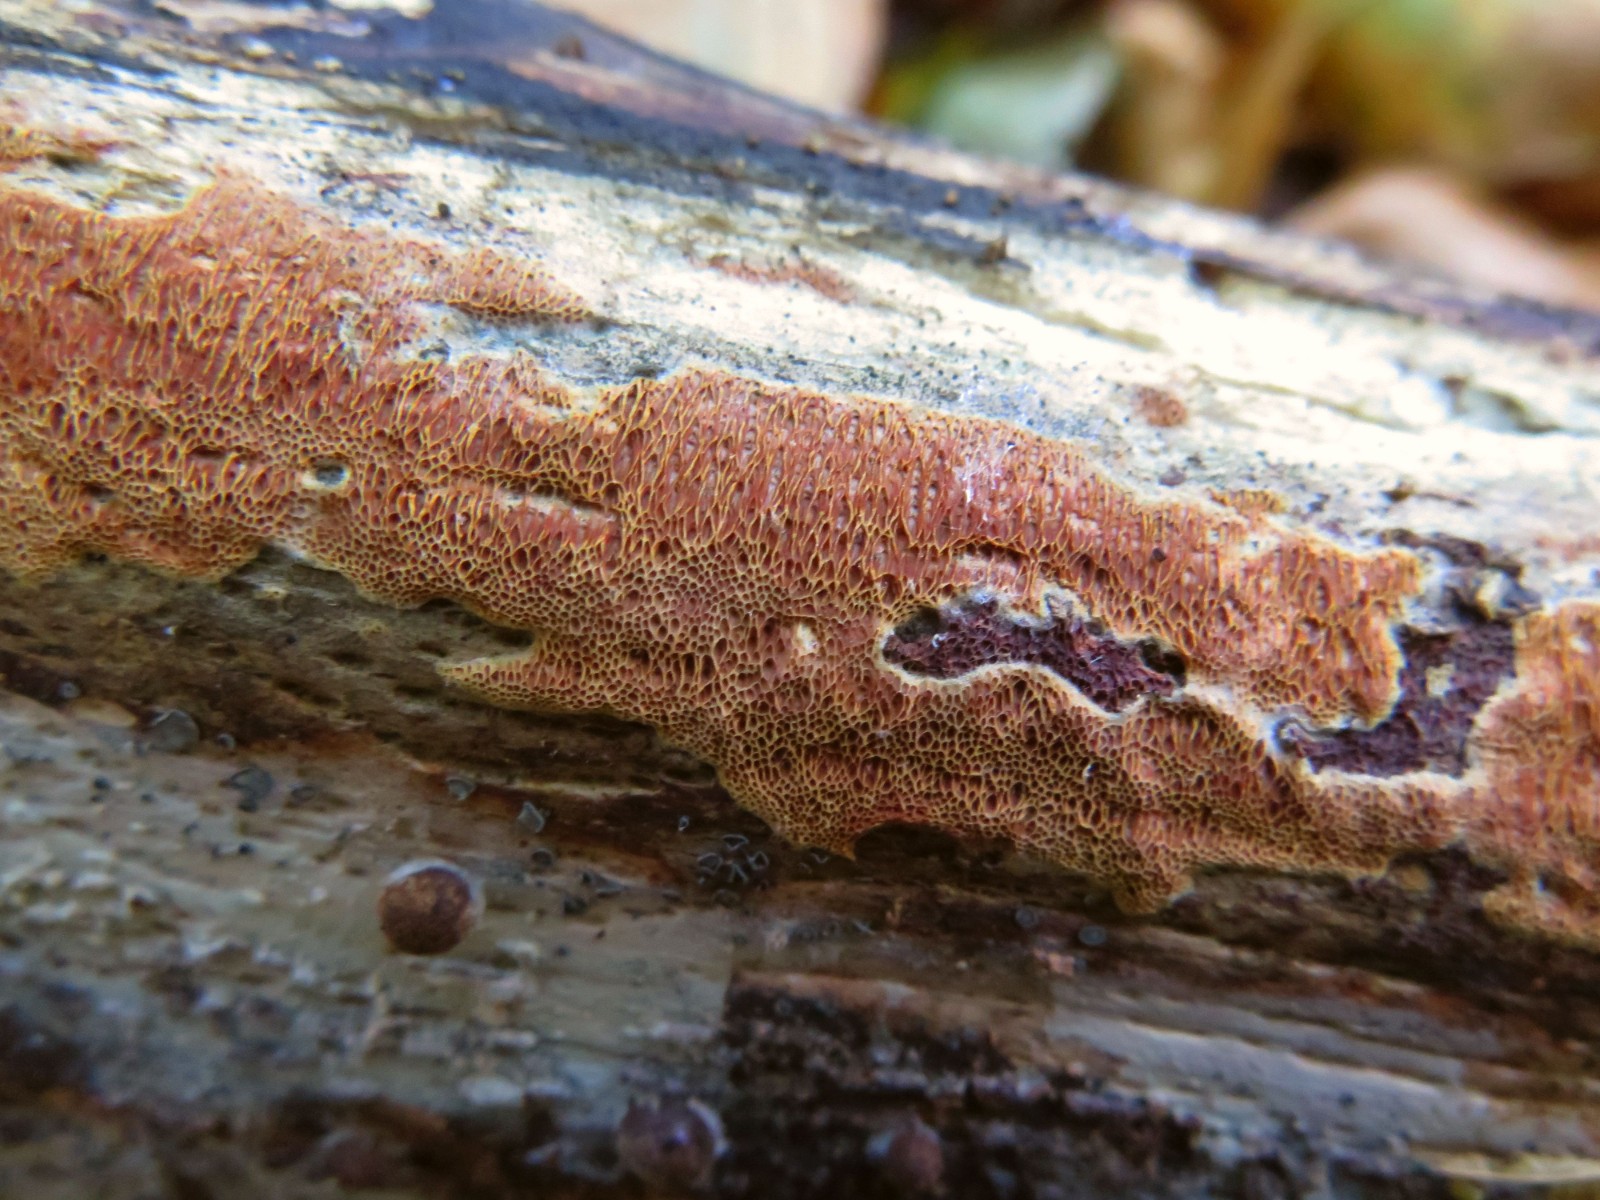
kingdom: Fungi
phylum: Basidiomycota
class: Agaricomycetes
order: Polyporales
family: Irpicaceae
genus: Ceriporia
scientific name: Ceriporia purpurea
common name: purpur-voksporesvamp
